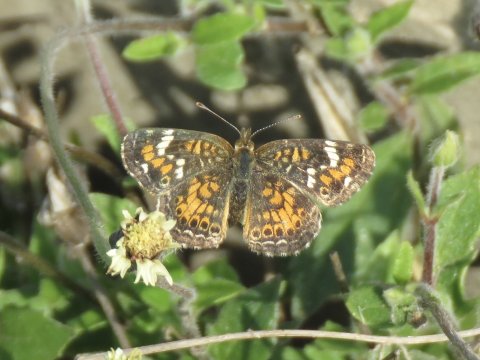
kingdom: Animalia
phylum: Arthropoda
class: Insecta
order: Lepidoptera
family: Nymphalidae
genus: Phyciodes
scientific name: Phyciodes phaon
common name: Phaon Crescent
